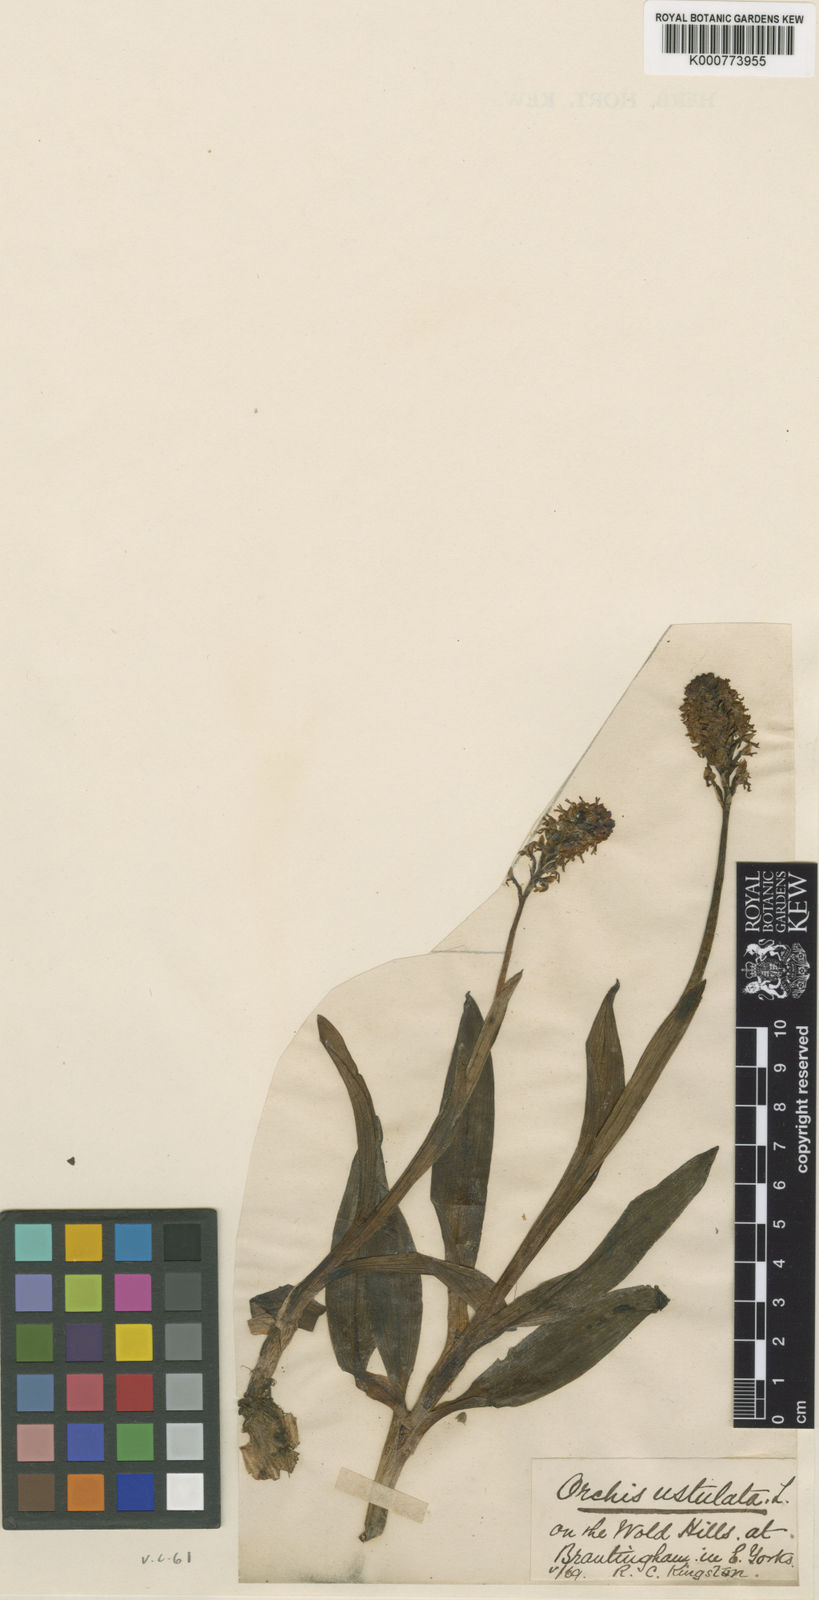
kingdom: Plantae
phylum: Tracheophyta
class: Liliopsida
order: Asparagales
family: Orchidaceae
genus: Neotinea
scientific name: Neotinea ustulata
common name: Burnt orchid
